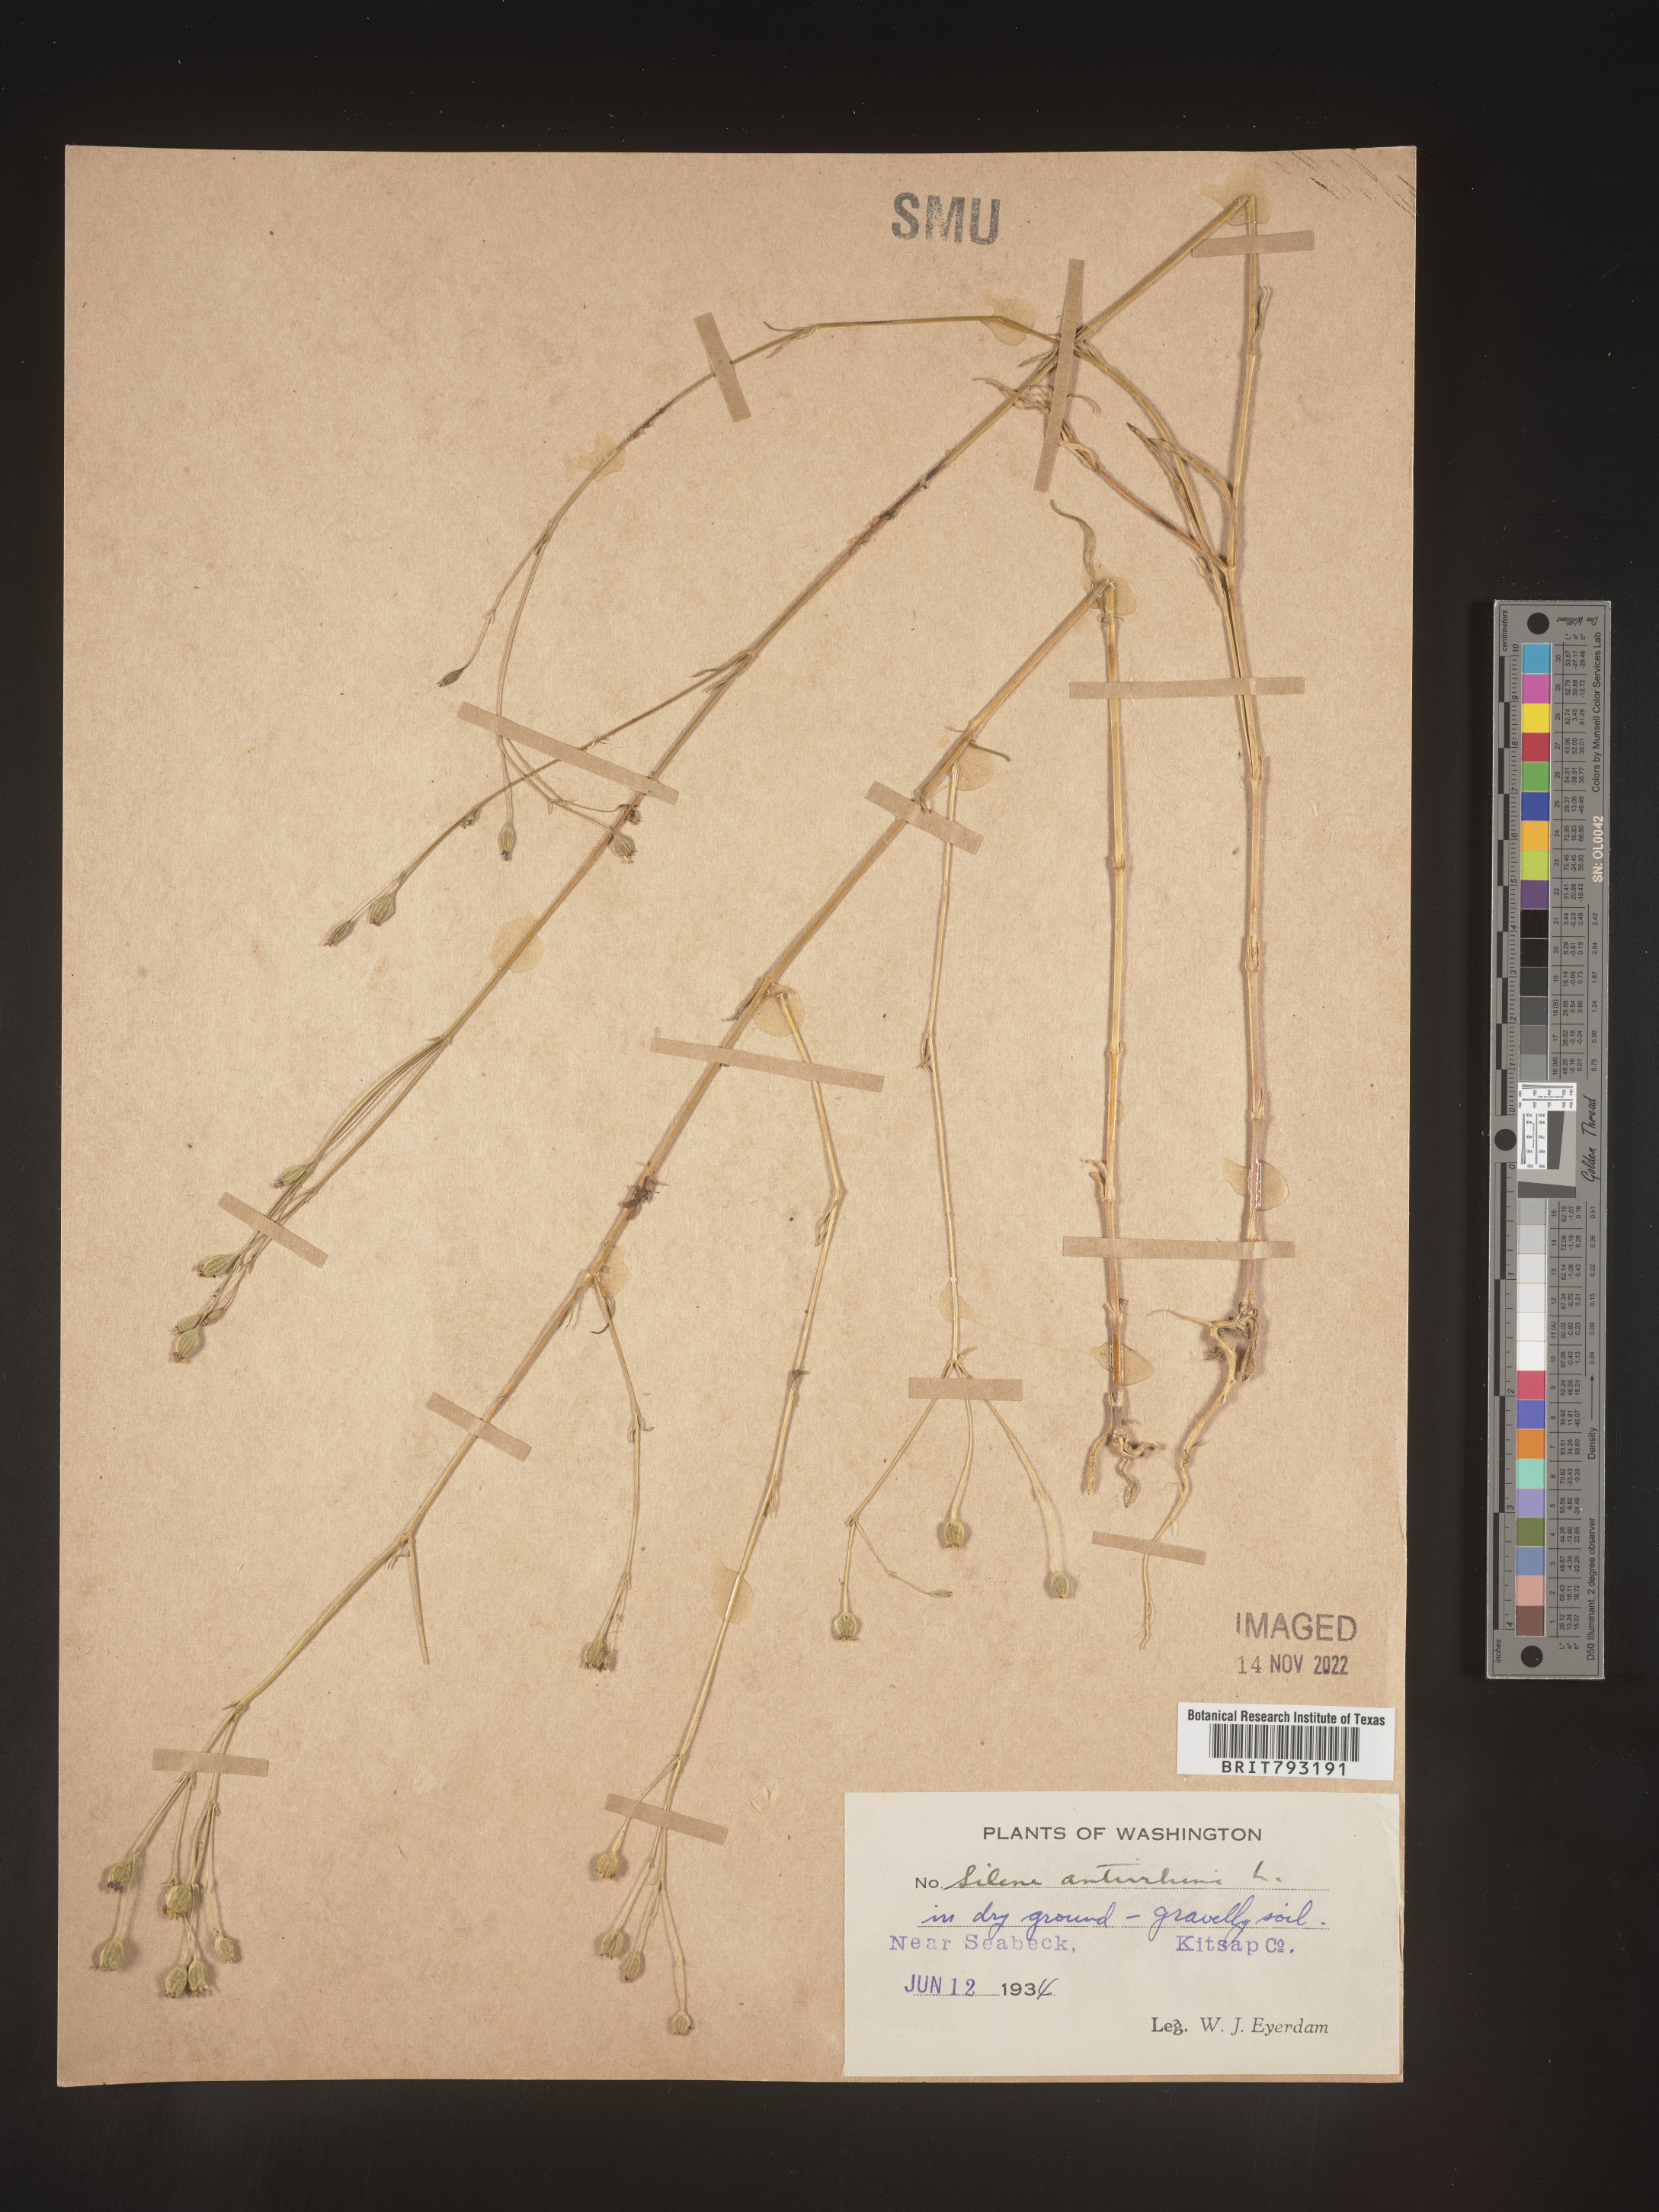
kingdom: Plantae
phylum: Tracheophyta
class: Magnoliopsida
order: Caryophyllales
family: Caryophyllaceae
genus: Silene
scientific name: Silene antirrhina
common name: Sleepy catchfly
